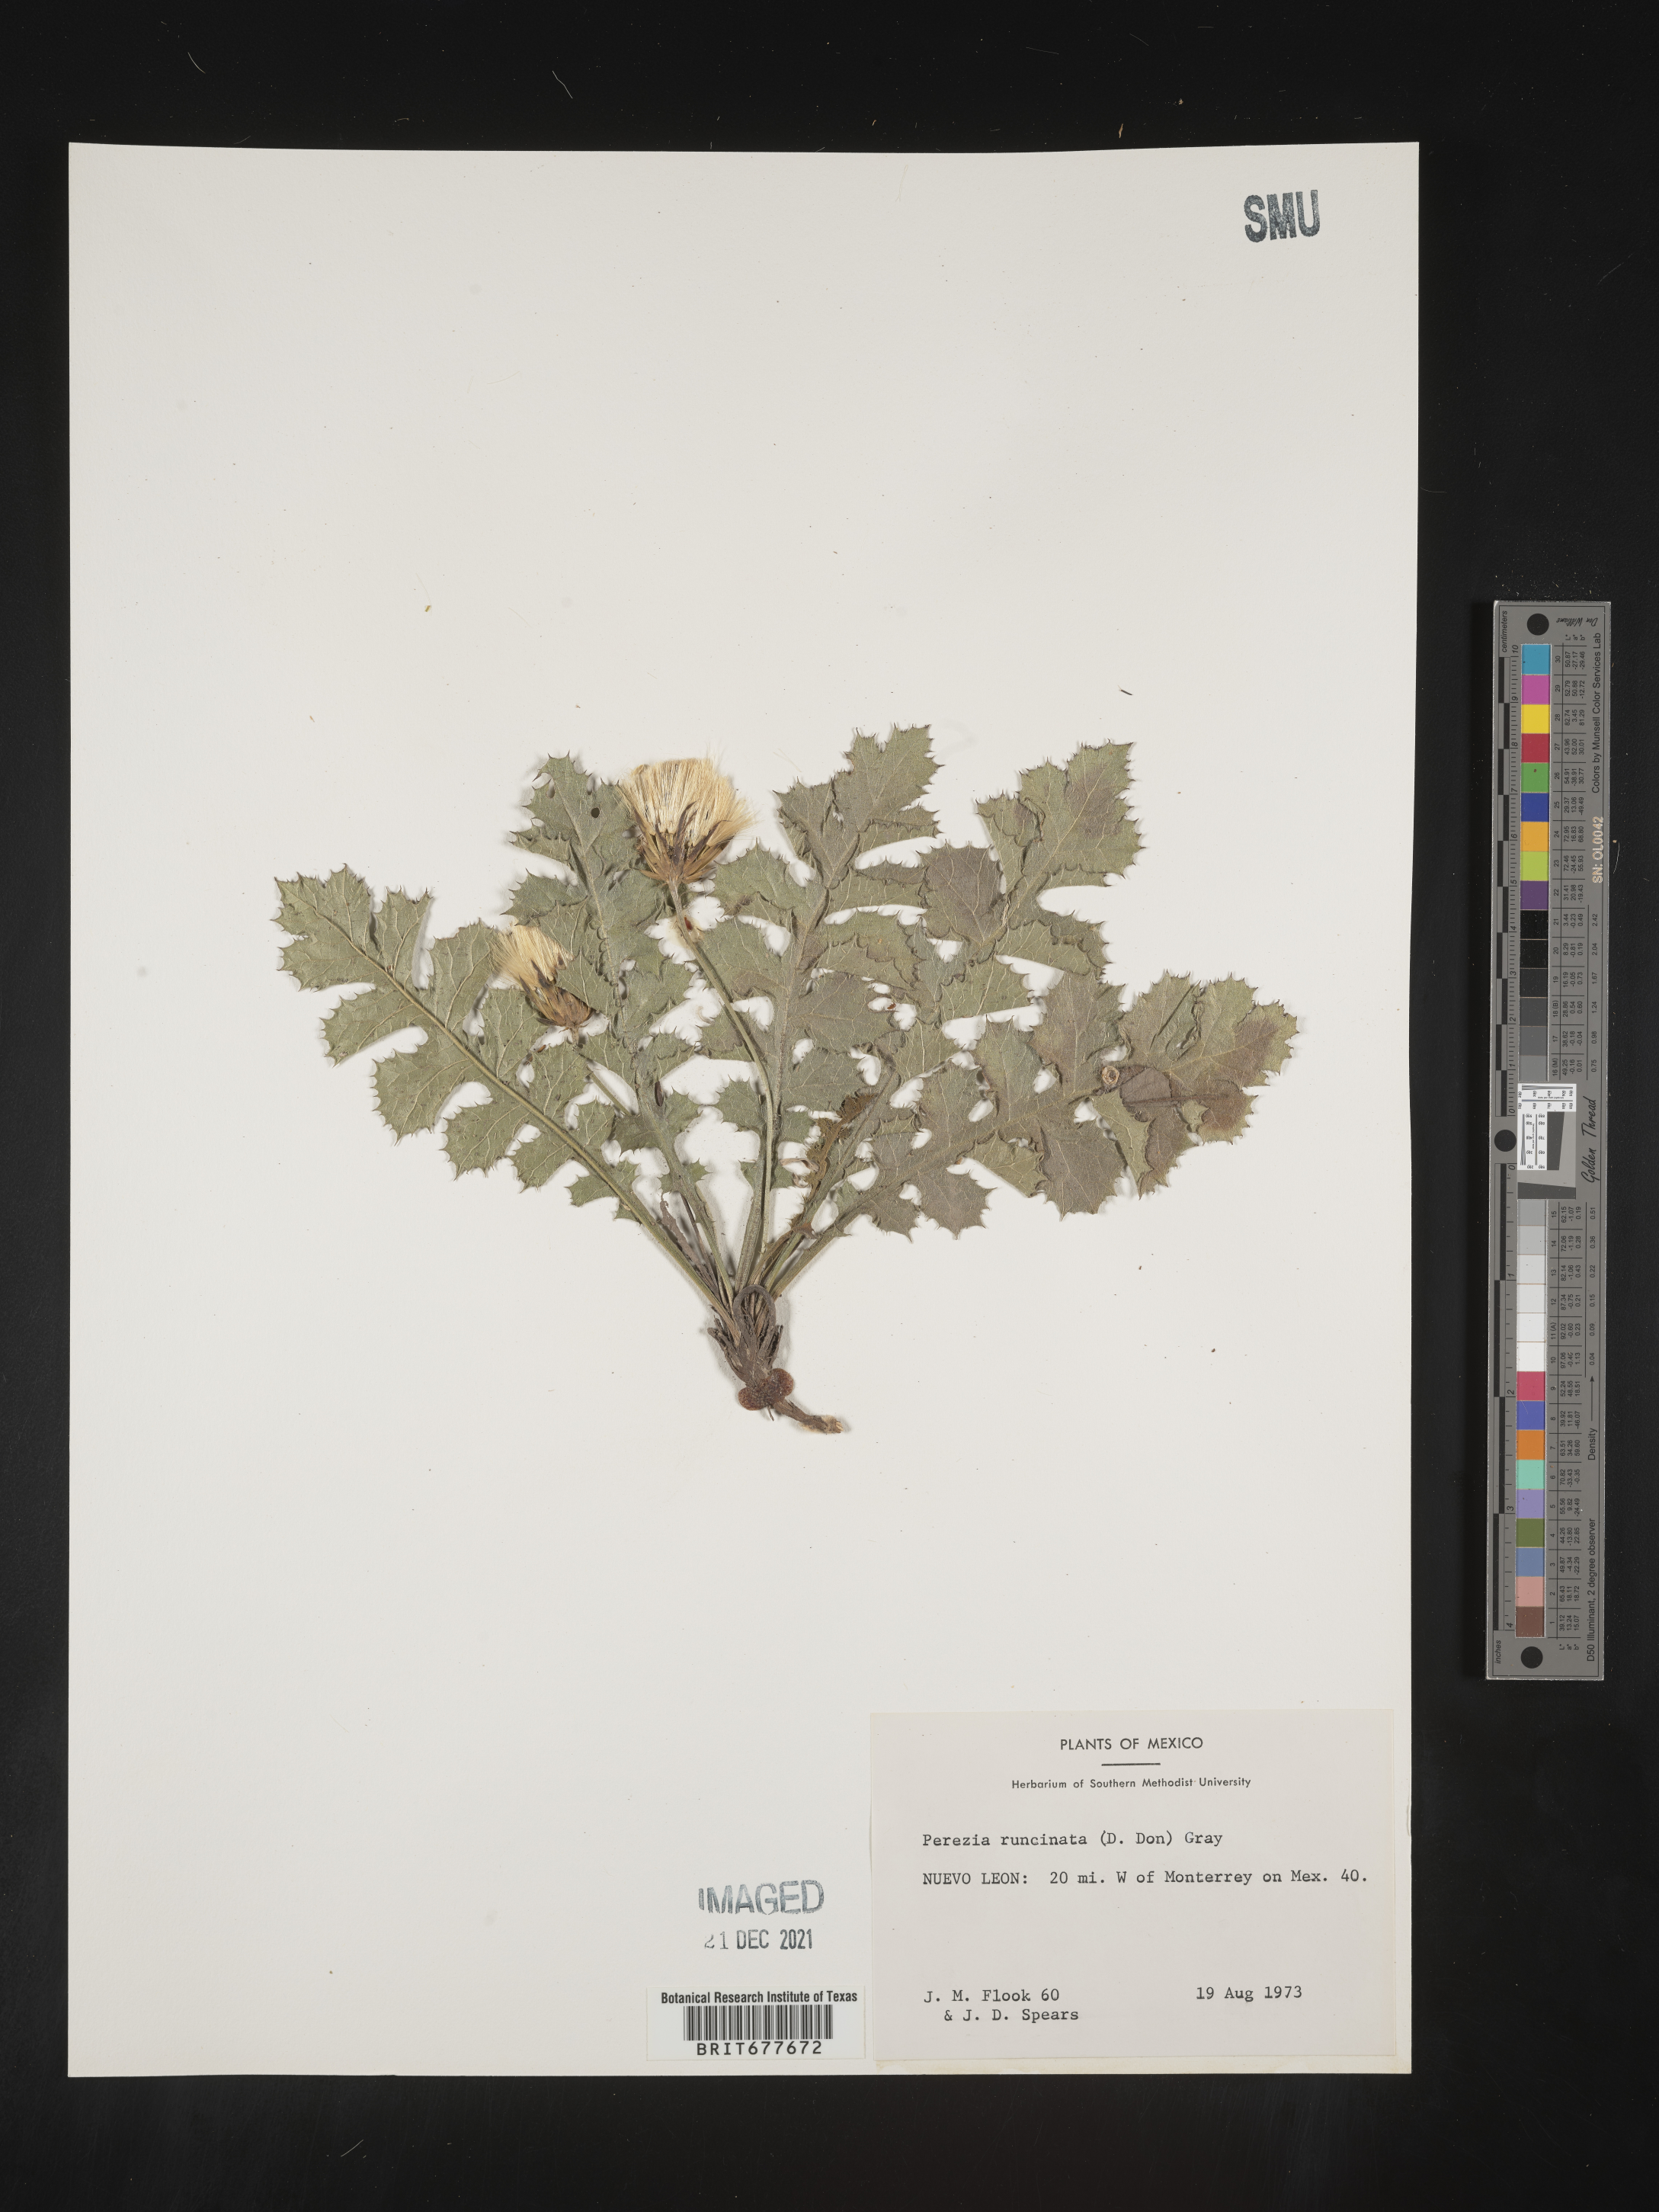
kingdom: Plantae
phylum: Tracheophyta
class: Magnoliopsida
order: Asterales
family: Asteraceae
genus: Perezia
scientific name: Perezia
